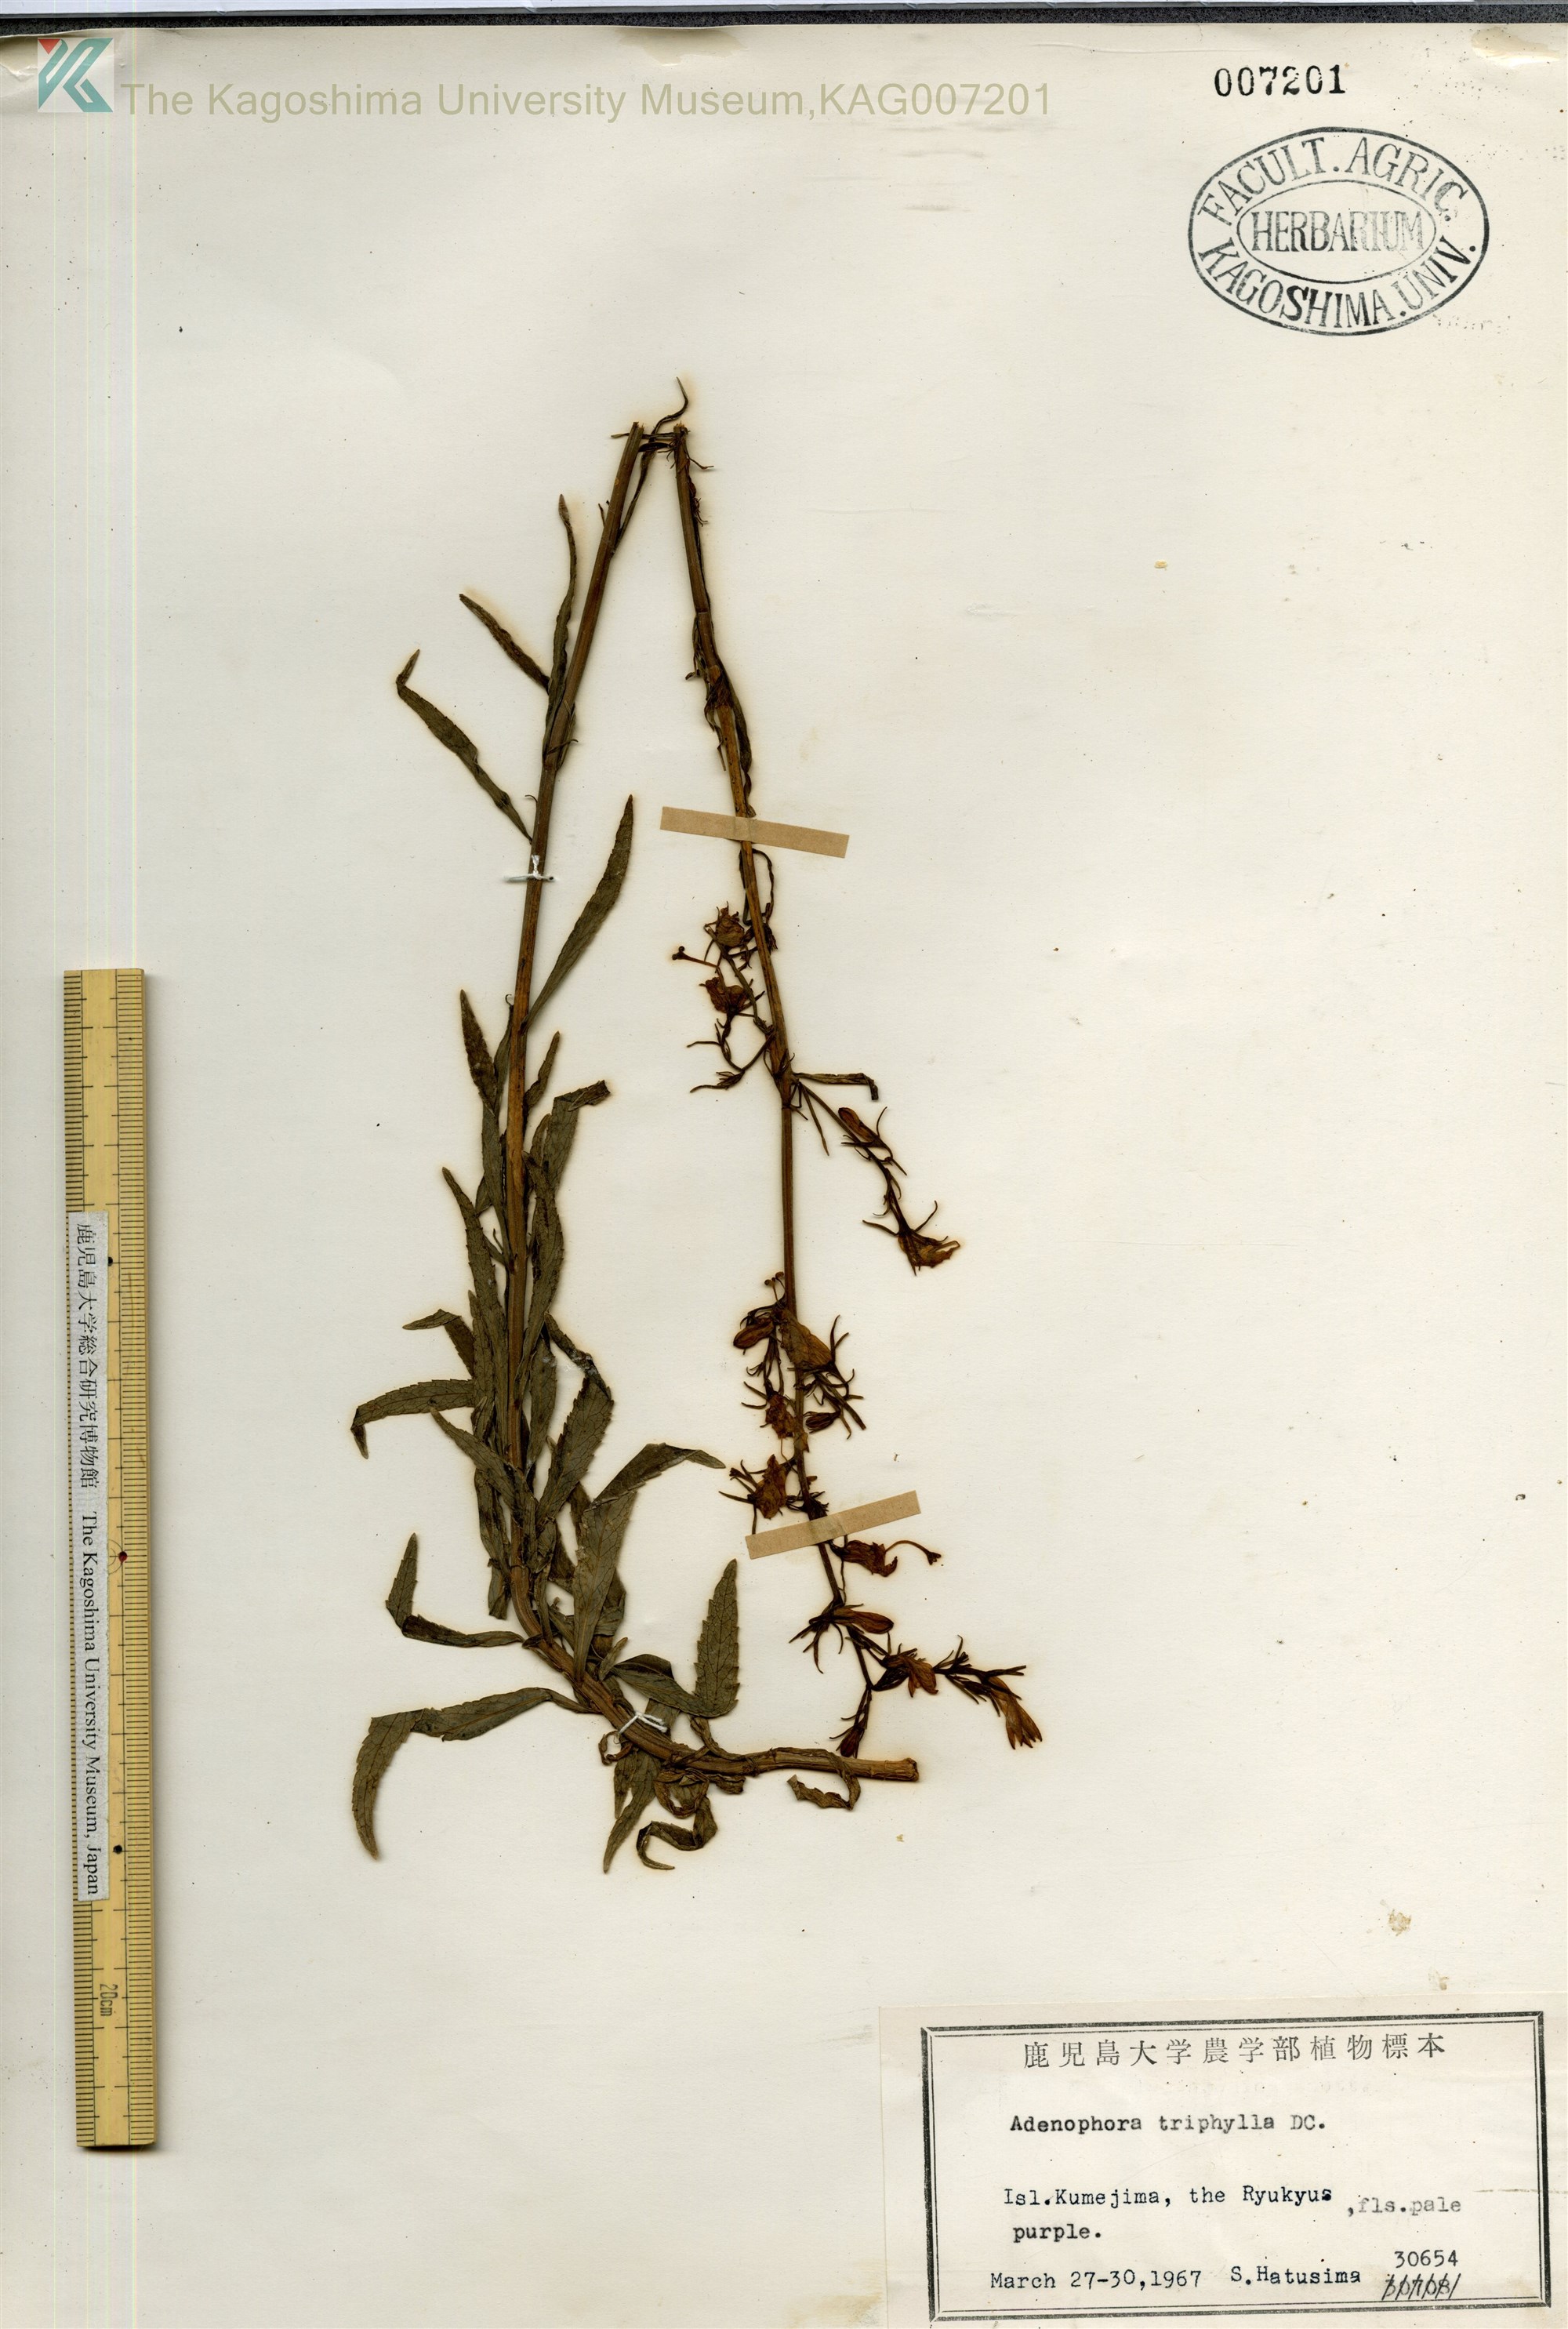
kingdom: Plantae
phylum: Tracheophyta
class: Magnoliopsida
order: Asterales
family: Campanulaceae
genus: Adenophora
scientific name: Adenophora triphylla
